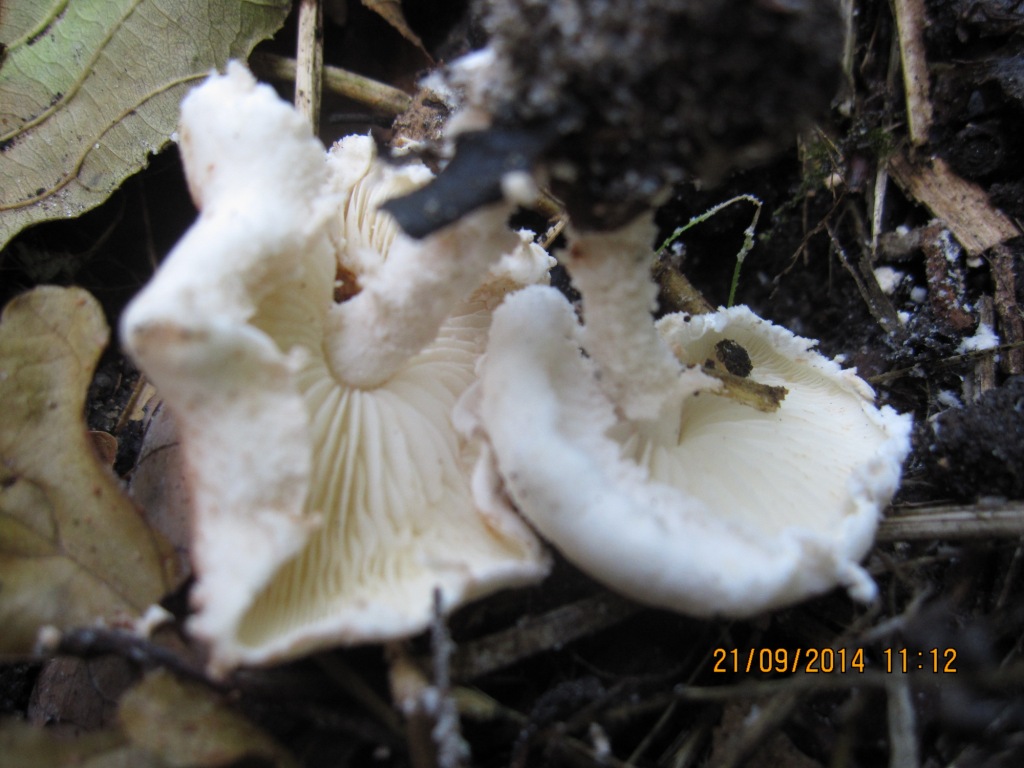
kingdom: Fungi
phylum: Basidiomycota
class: Agaricomycetes
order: Agaricales
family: Agaricaceae
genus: Cystolepiota
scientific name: Cystolepiota hetieri
